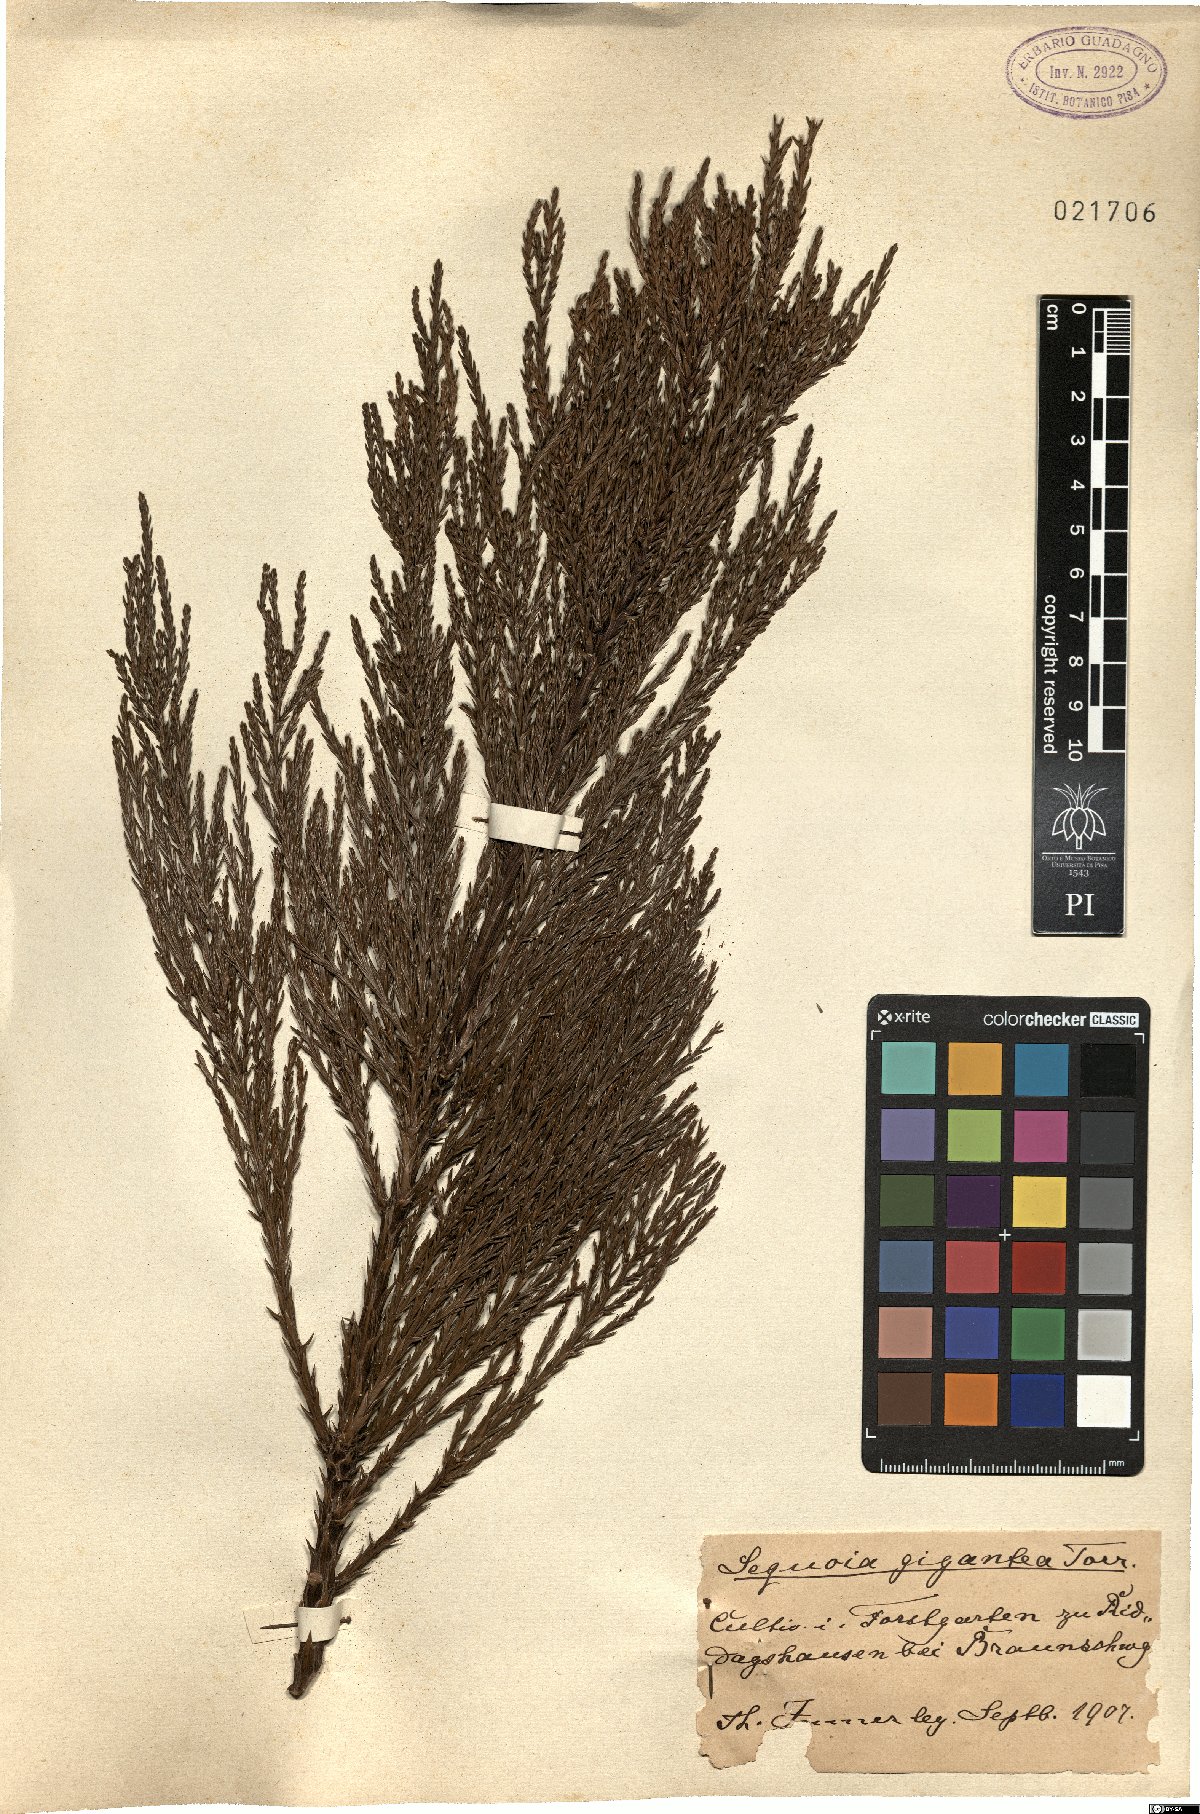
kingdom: Plantae
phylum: Tracheophyta
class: Pinopsida
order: Pinales
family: Cupressaceae
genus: Sequoiadendron
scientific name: Sequoiadendron giganteum
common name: Wellingtonia
